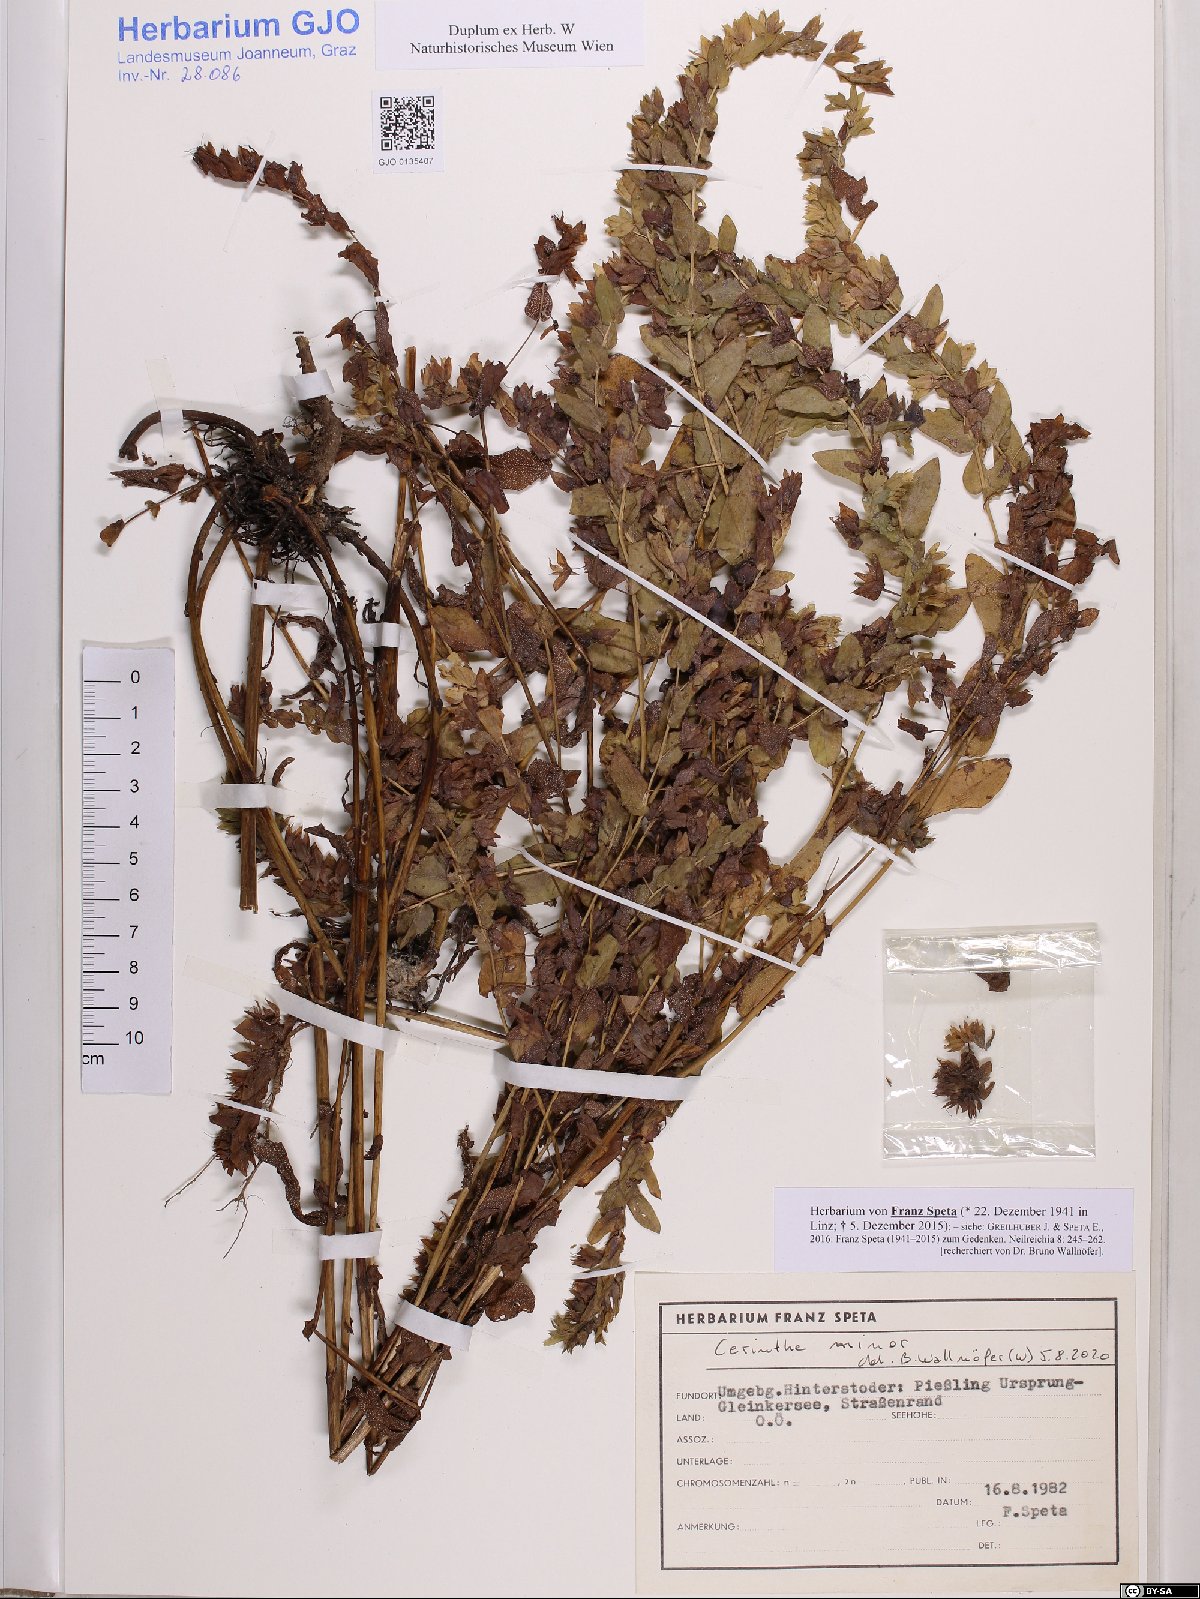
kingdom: Plantae
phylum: Tracheophyta
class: Magnoliopsida
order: Boraginales
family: Boraginaceae
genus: Cerinthe
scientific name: Cerinthe minor
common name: Lesser honeywort
